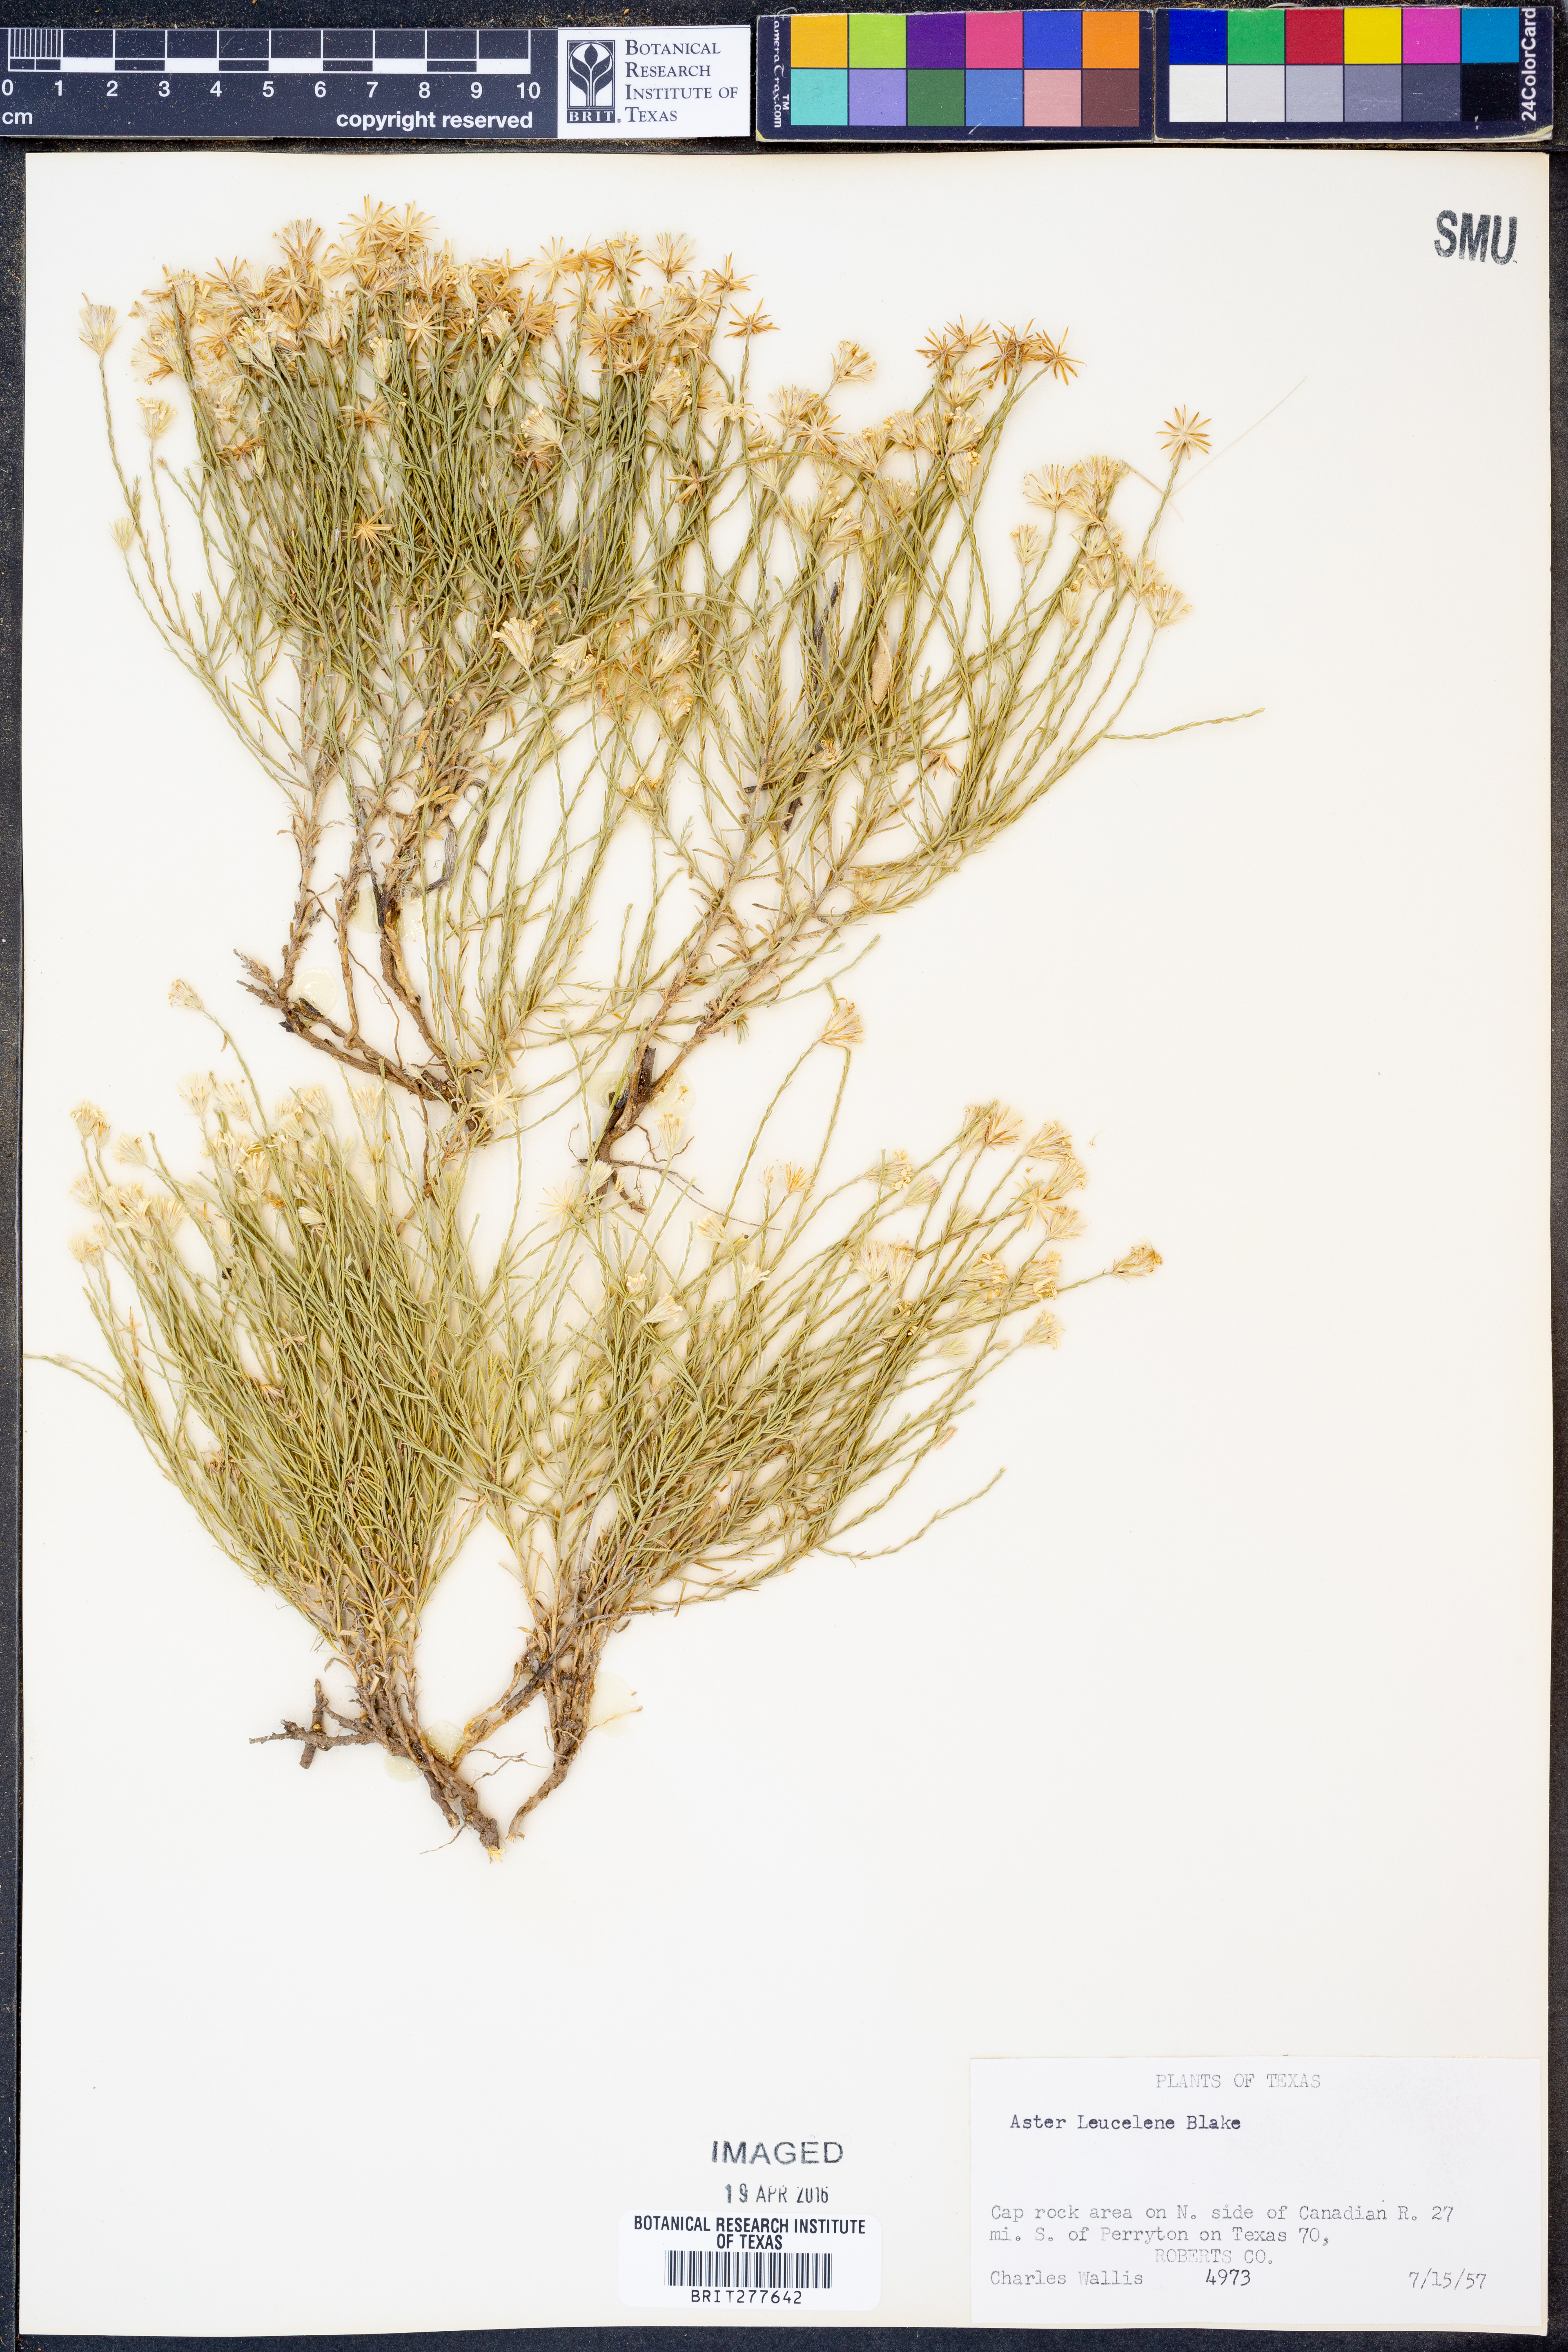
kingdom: Plantae
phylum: Tracheophyta
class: Magnoliopsida
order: Asterales
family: Asteraceae
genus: Chaetopappa
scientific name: Chaetopappa ericoides
